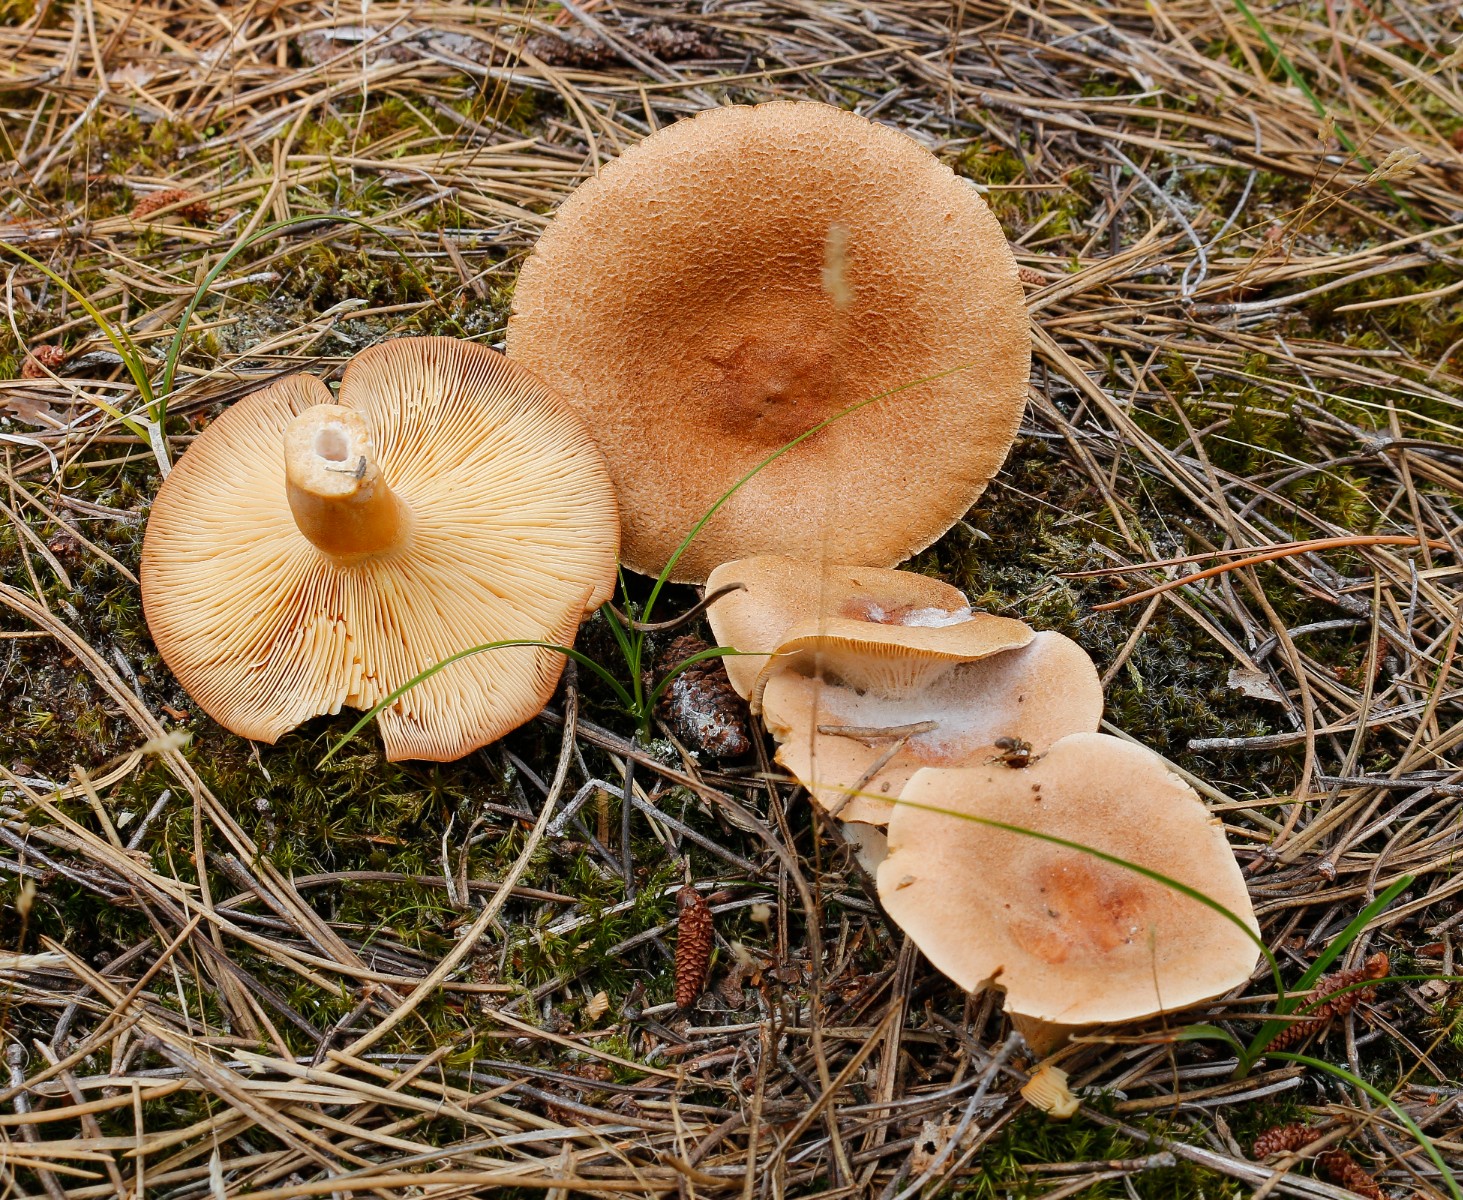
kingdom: Fungi
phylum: Basidiomycota
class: Agaricomycetes
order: Russulales
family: Russulaceae
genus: Lactarius
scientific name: Lactarius helvus
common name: mose-mælkehat
